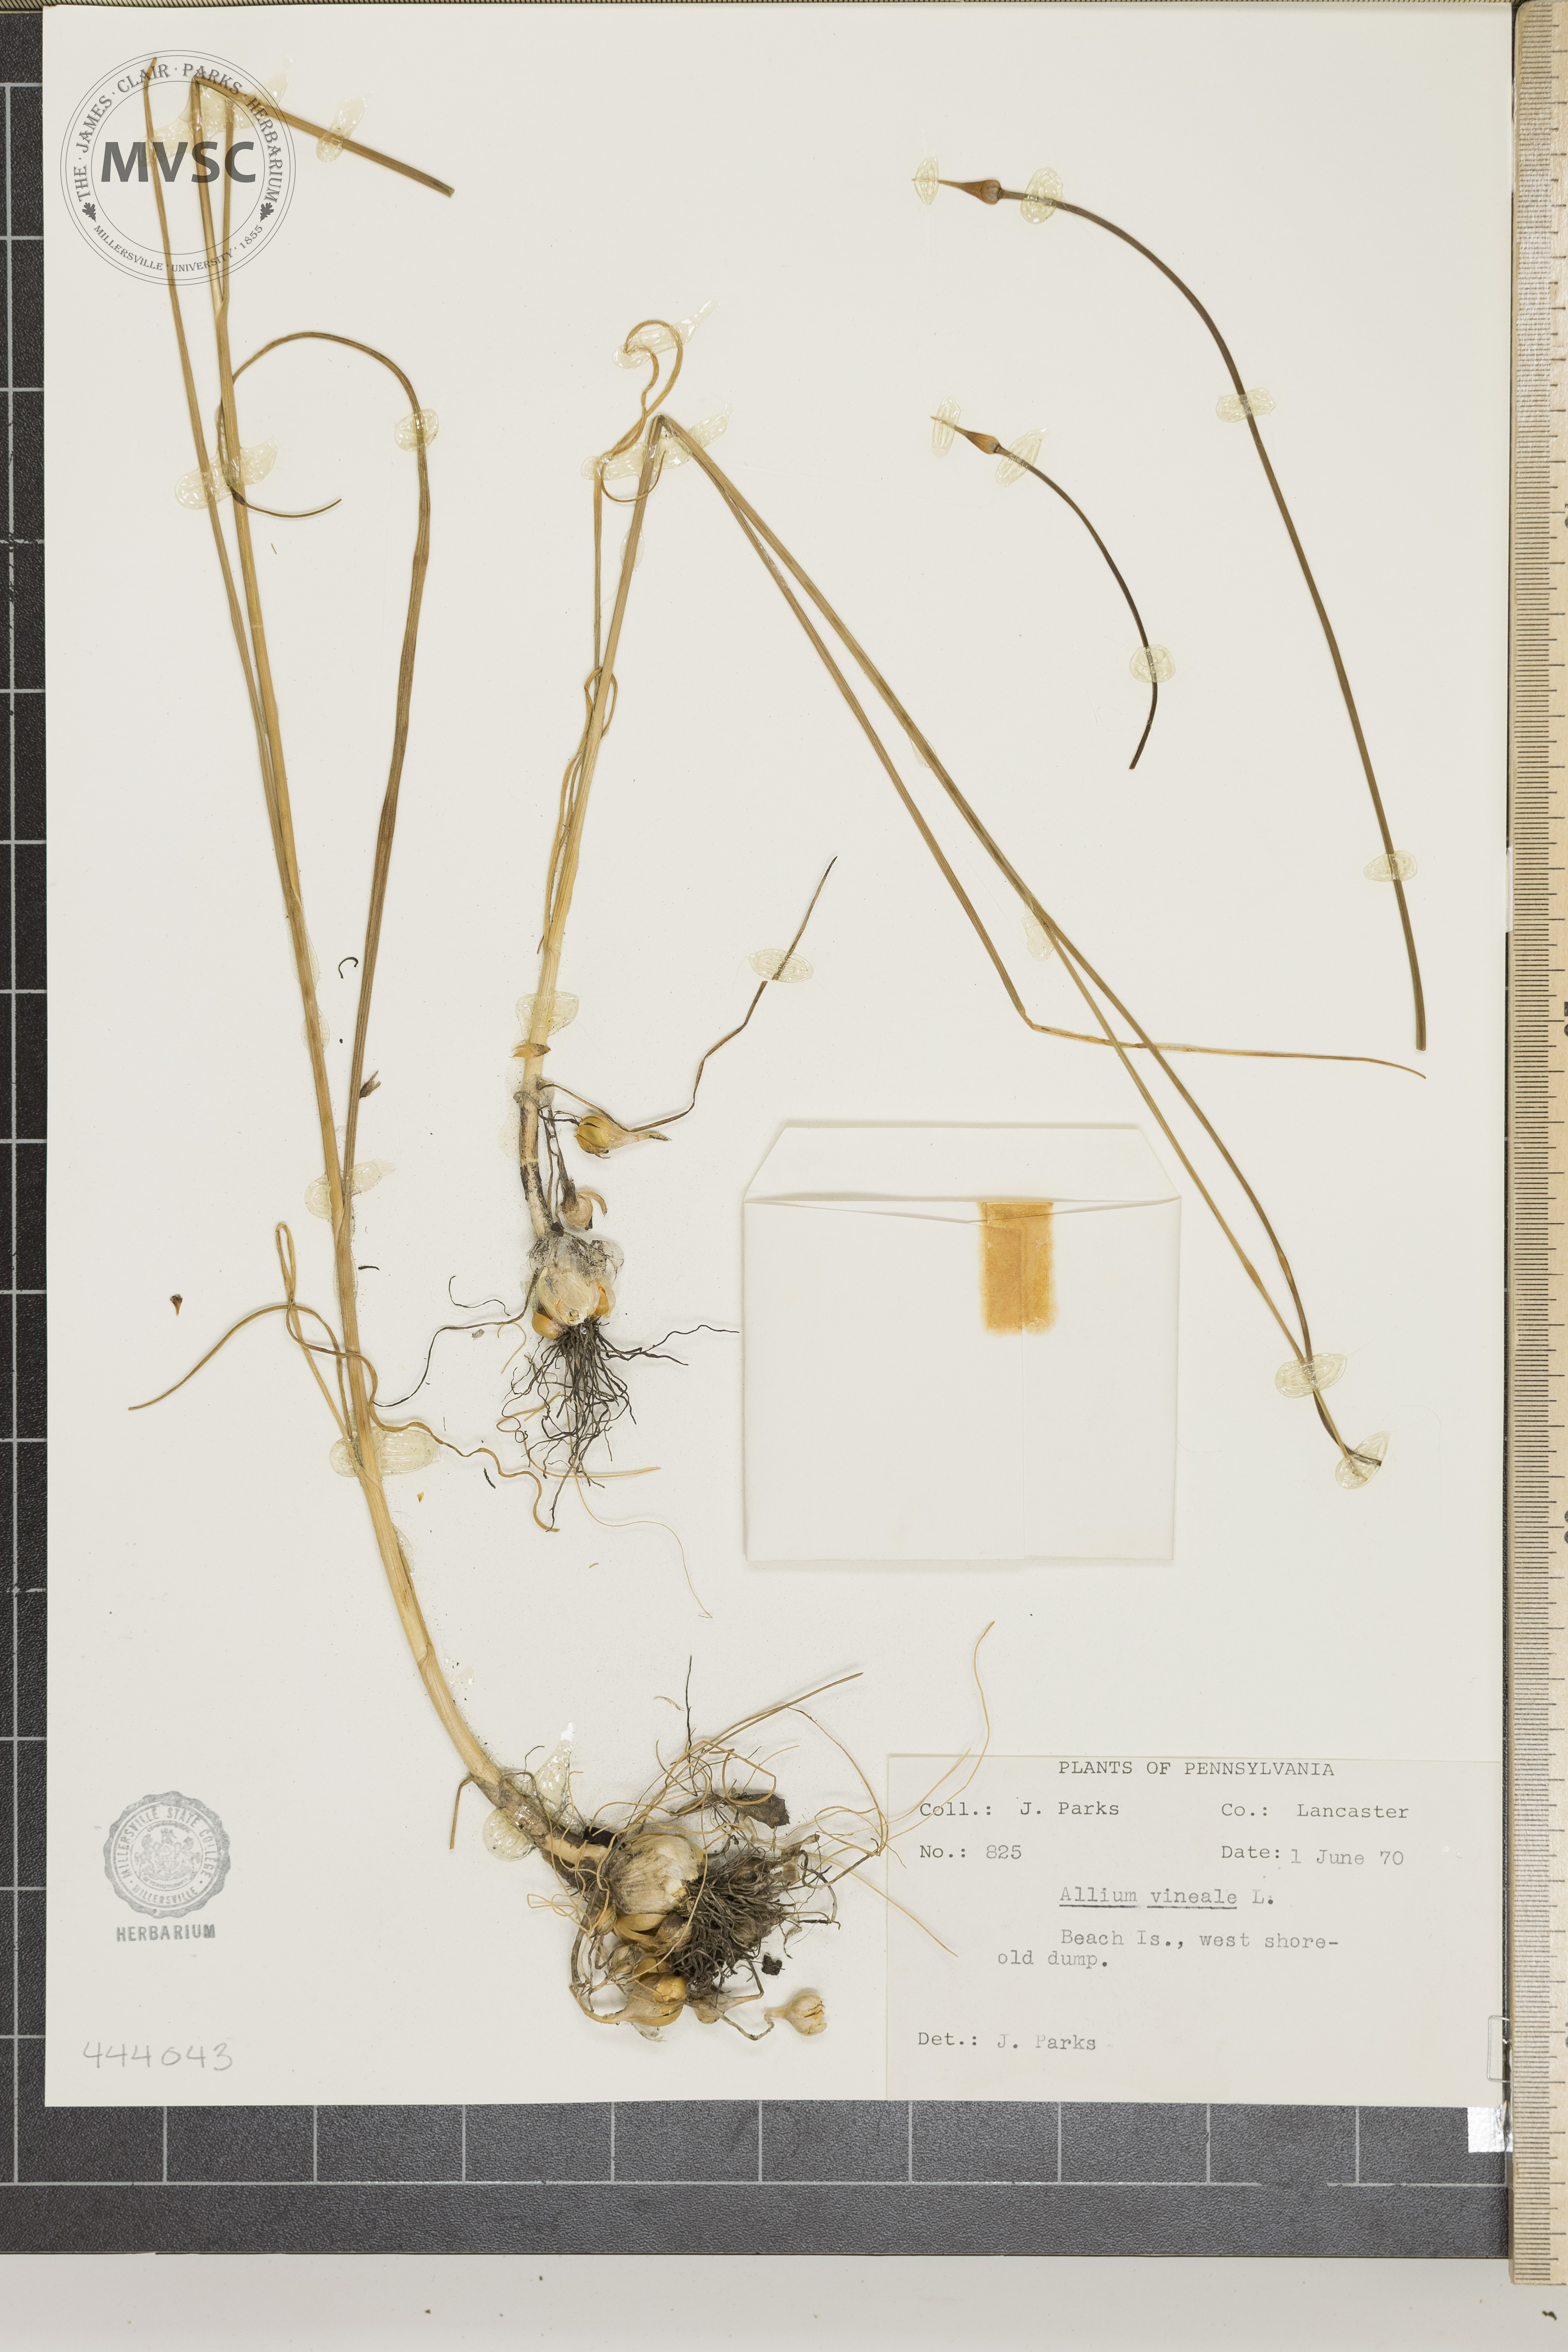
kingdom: Plantae
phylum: Tracheophyta
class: Liliopsida
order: Asparagales
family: Amaryllidaceae
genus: Allium
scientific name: Allium vineale
